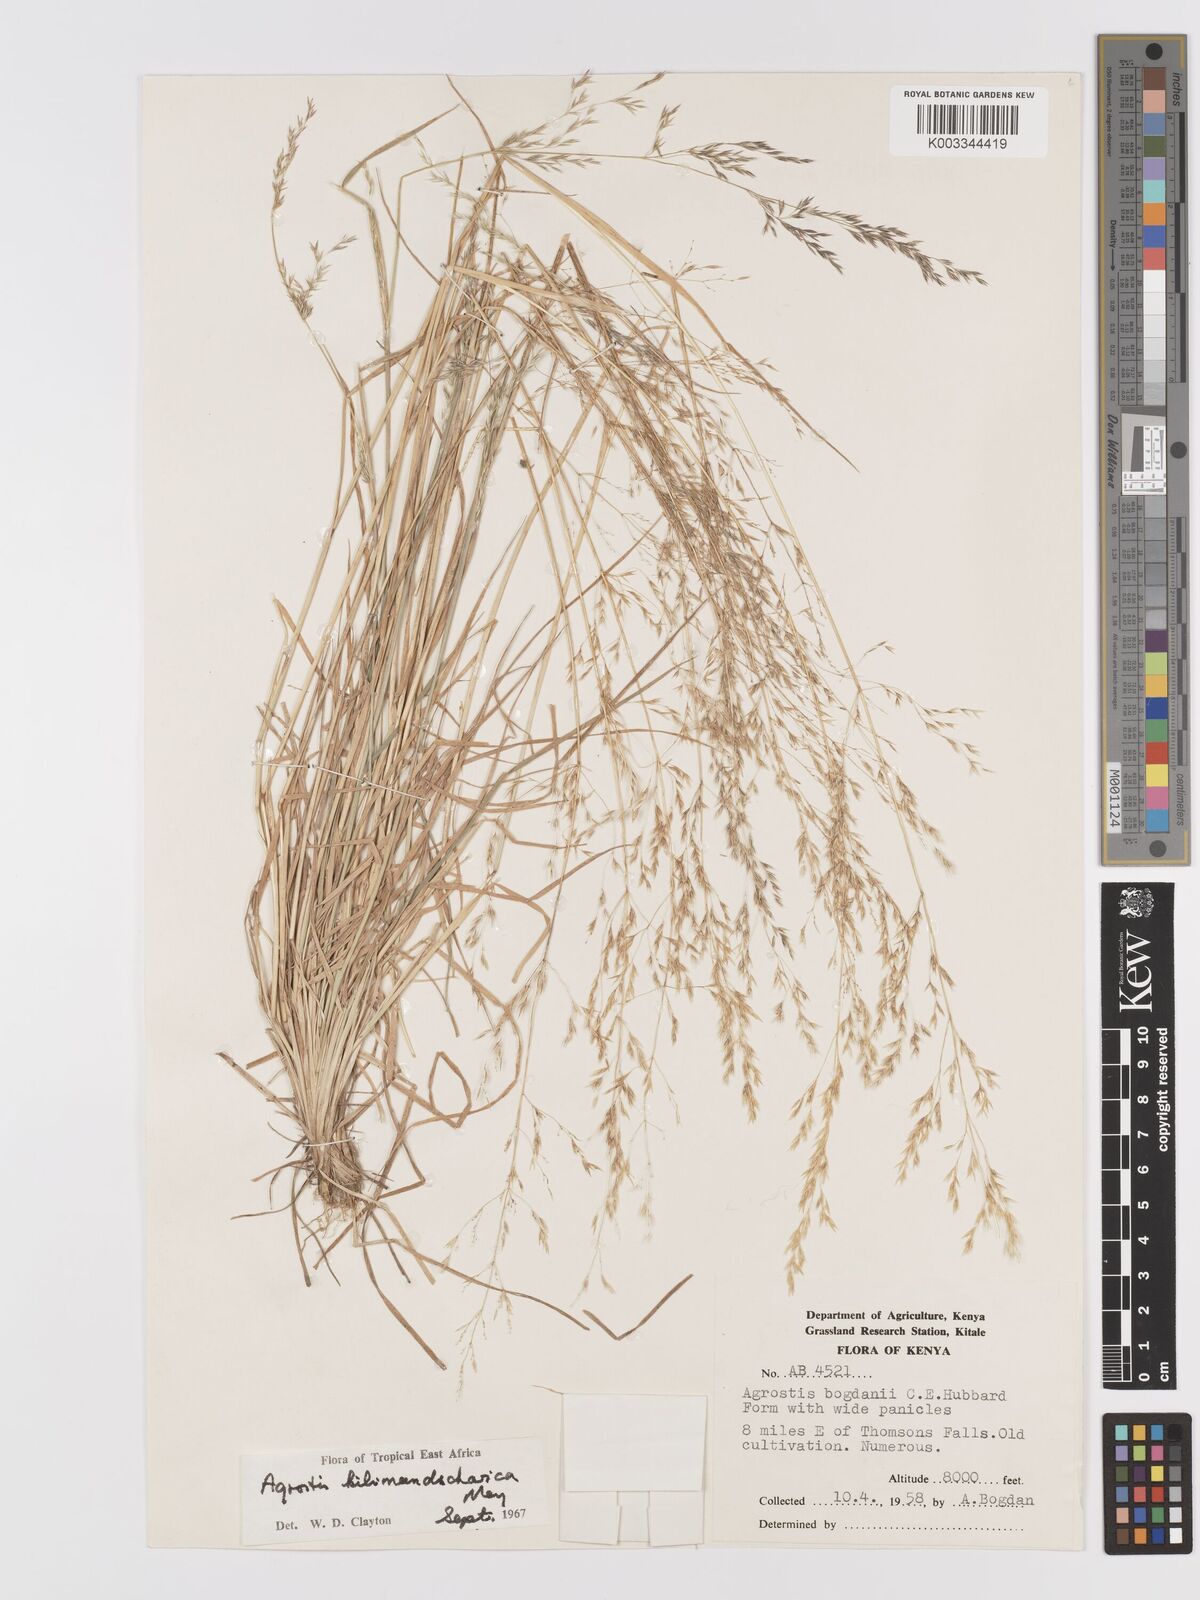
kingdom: Plantae
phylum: Tracheophyta
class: Liliopsida
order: Poales
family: Poaceae
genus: Agrostis
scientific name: Agrostis kilimandscharica
